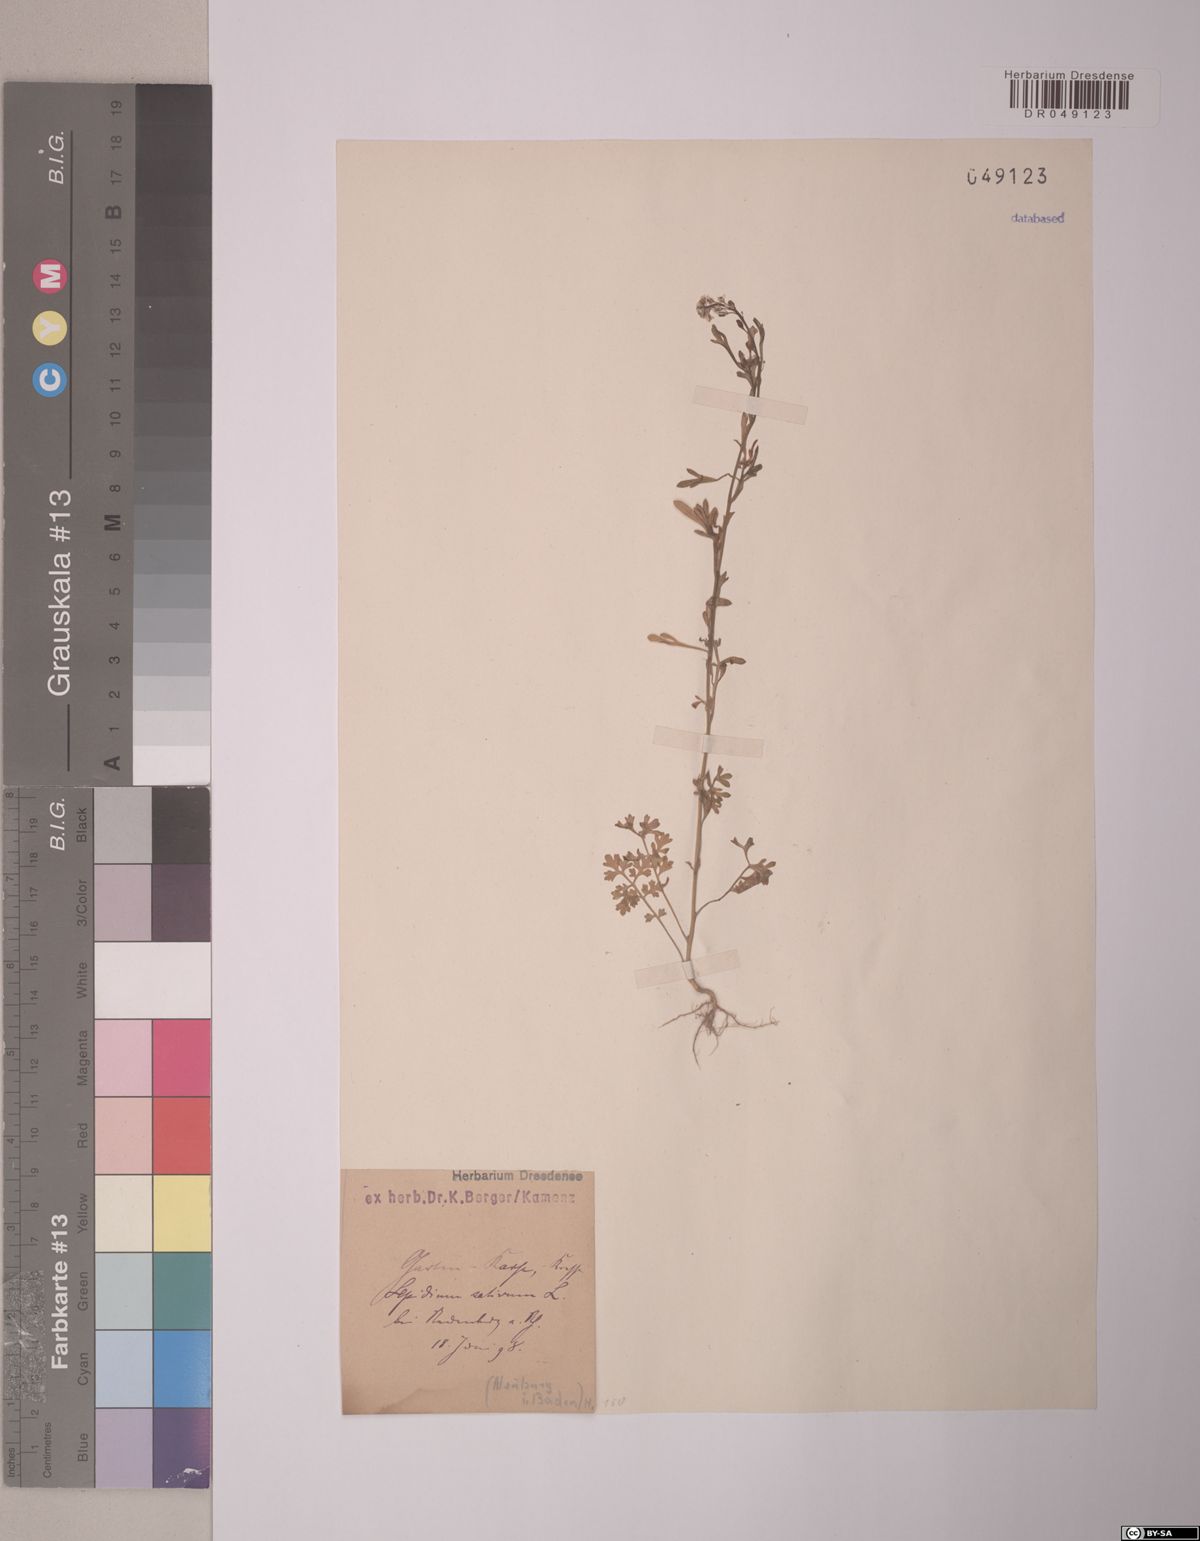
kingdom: Plantae
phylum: Tracheophyta
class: Magnoliopsida
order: Brassicales
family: Brassicaceae
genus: Lepidium
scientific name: Lepidium sativum
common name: Garden cress
